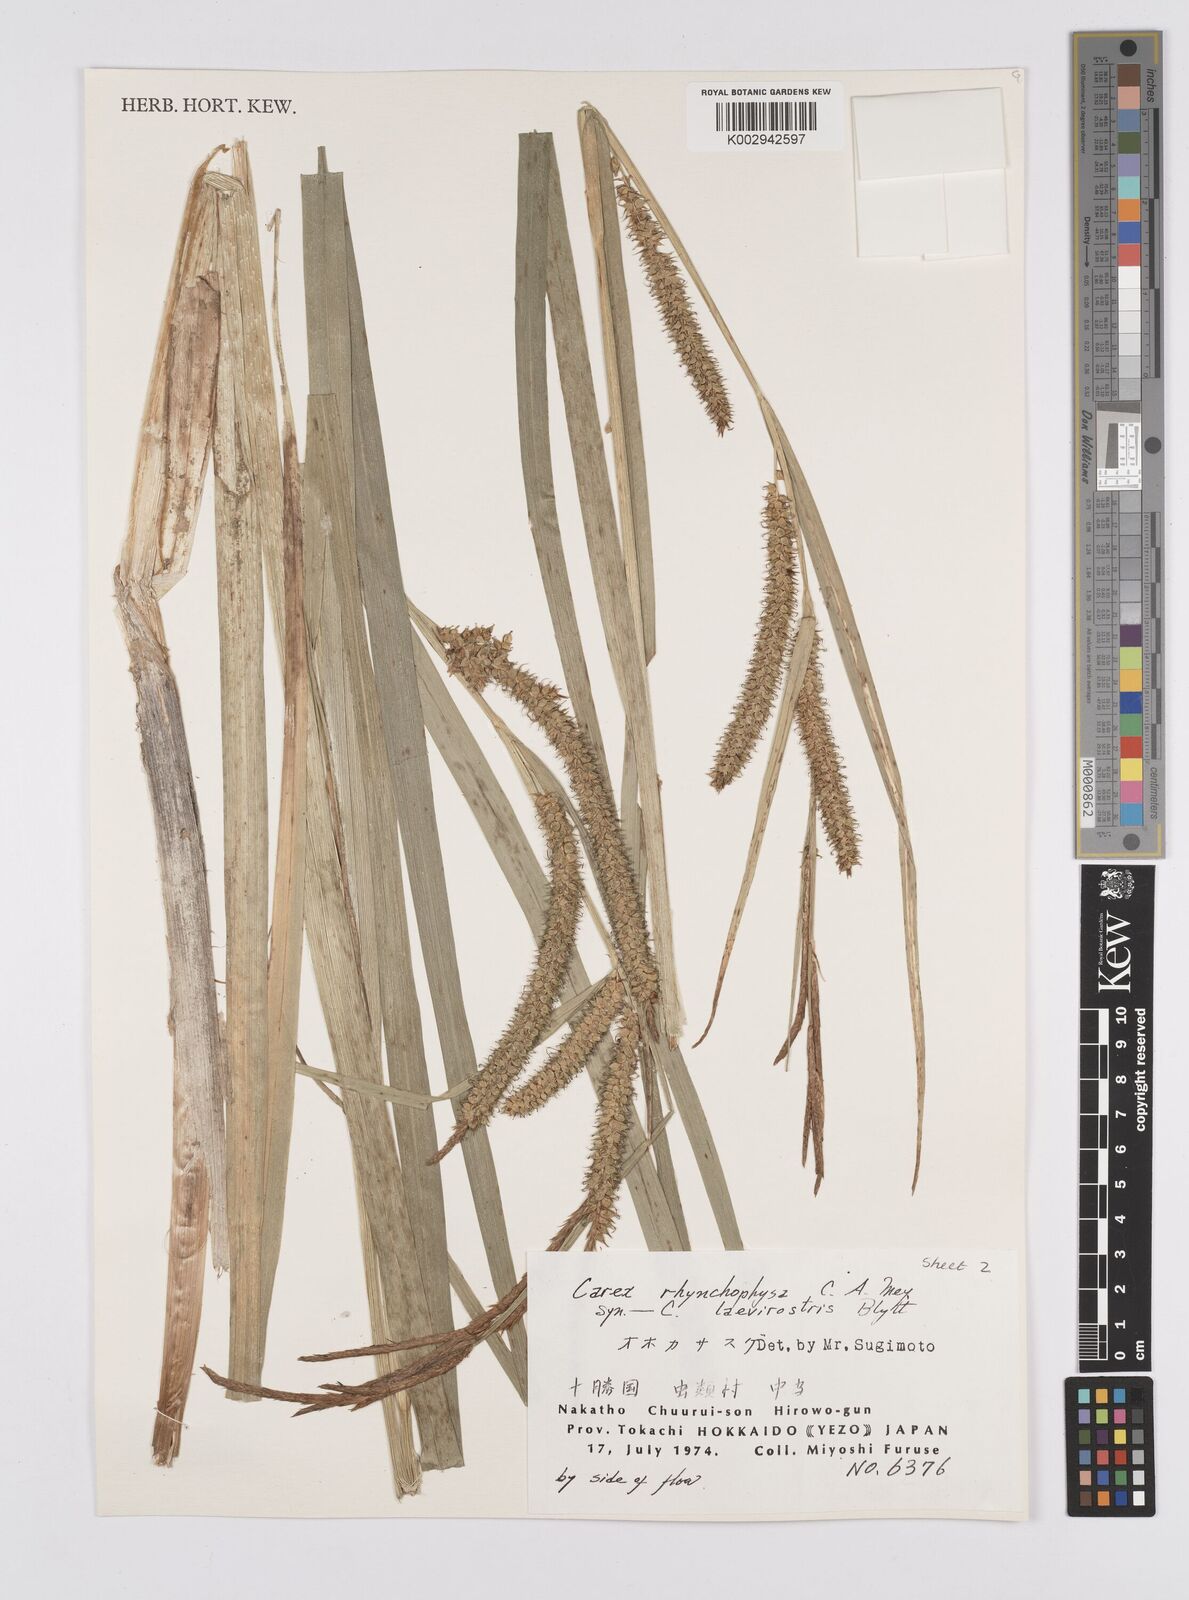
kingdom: Plantae
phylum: Tracheophyta
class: Liliopsida
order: Poales
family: Cyperaceae
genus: Carex
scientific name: Carex utriculata
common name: Beaked sedge
